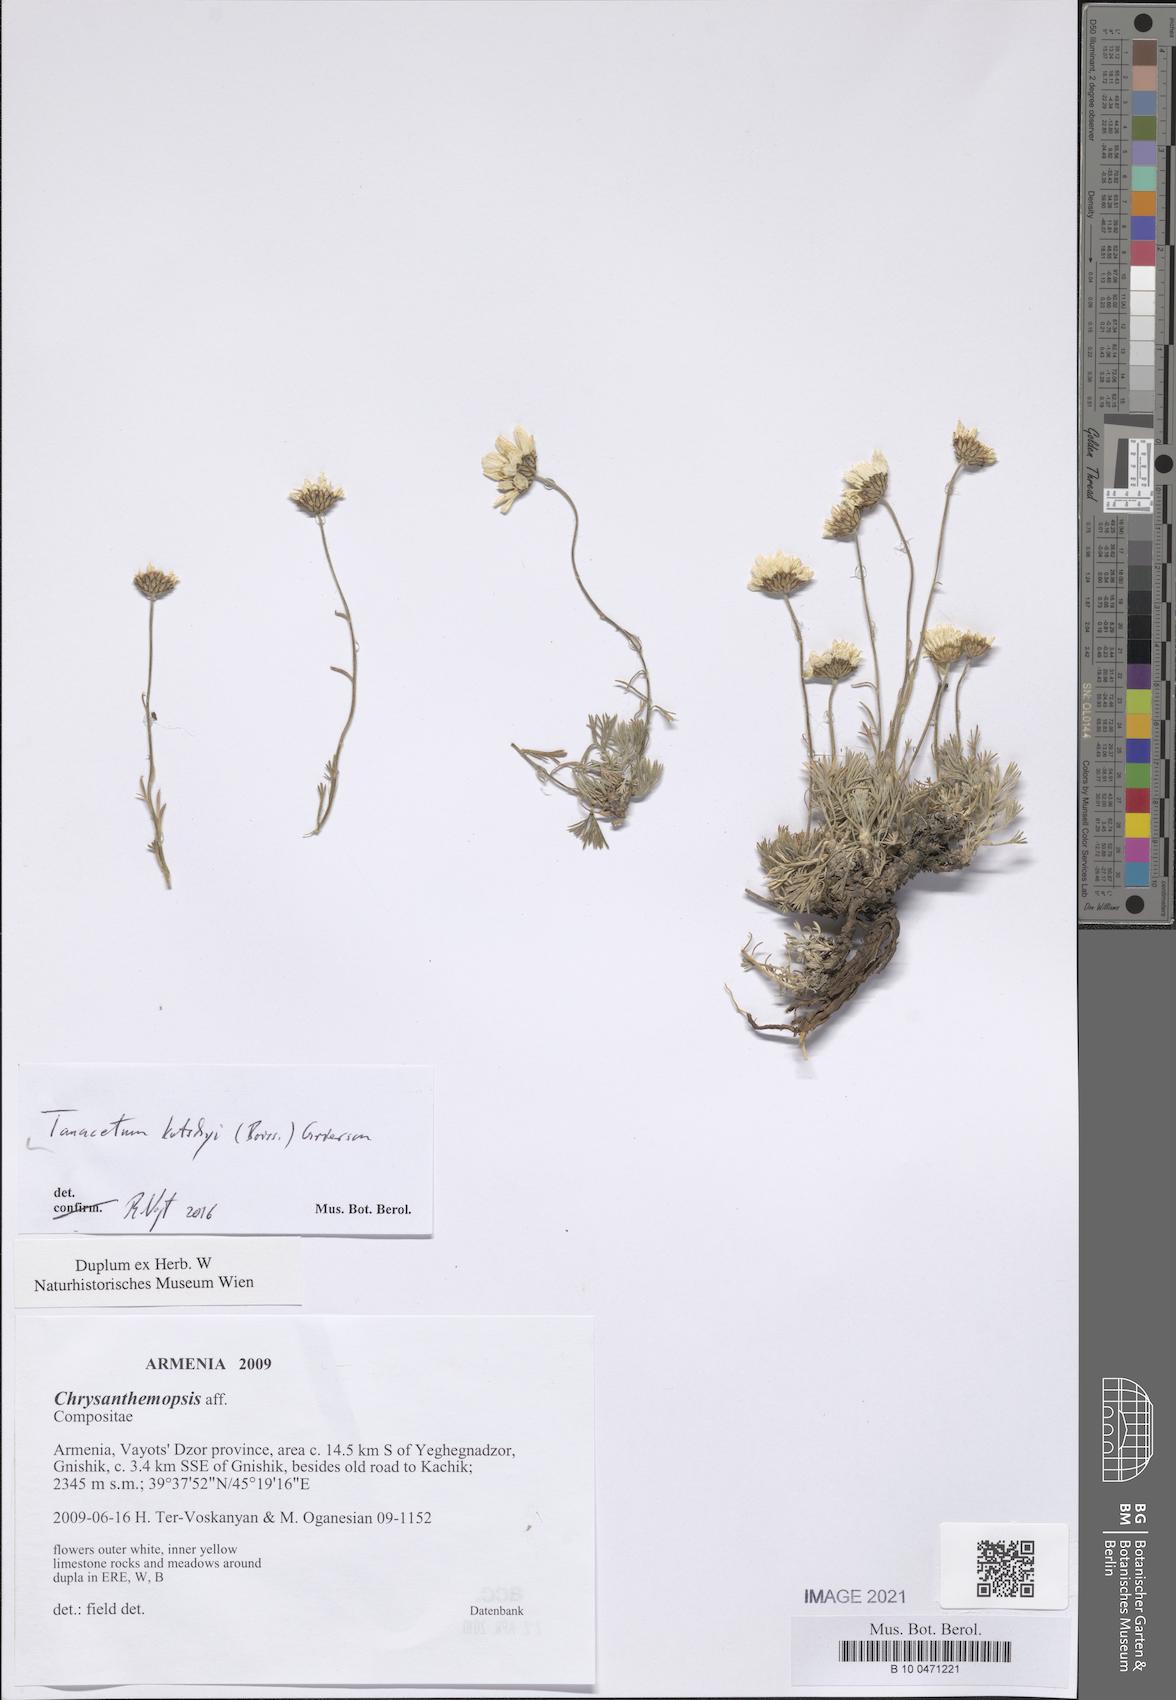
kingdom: Plantae
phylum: Tracheophyta
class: Magnoliopsida
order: Asterales
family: Asteraceae
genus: Tanacetum
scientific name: Tanacetum kotschyi
